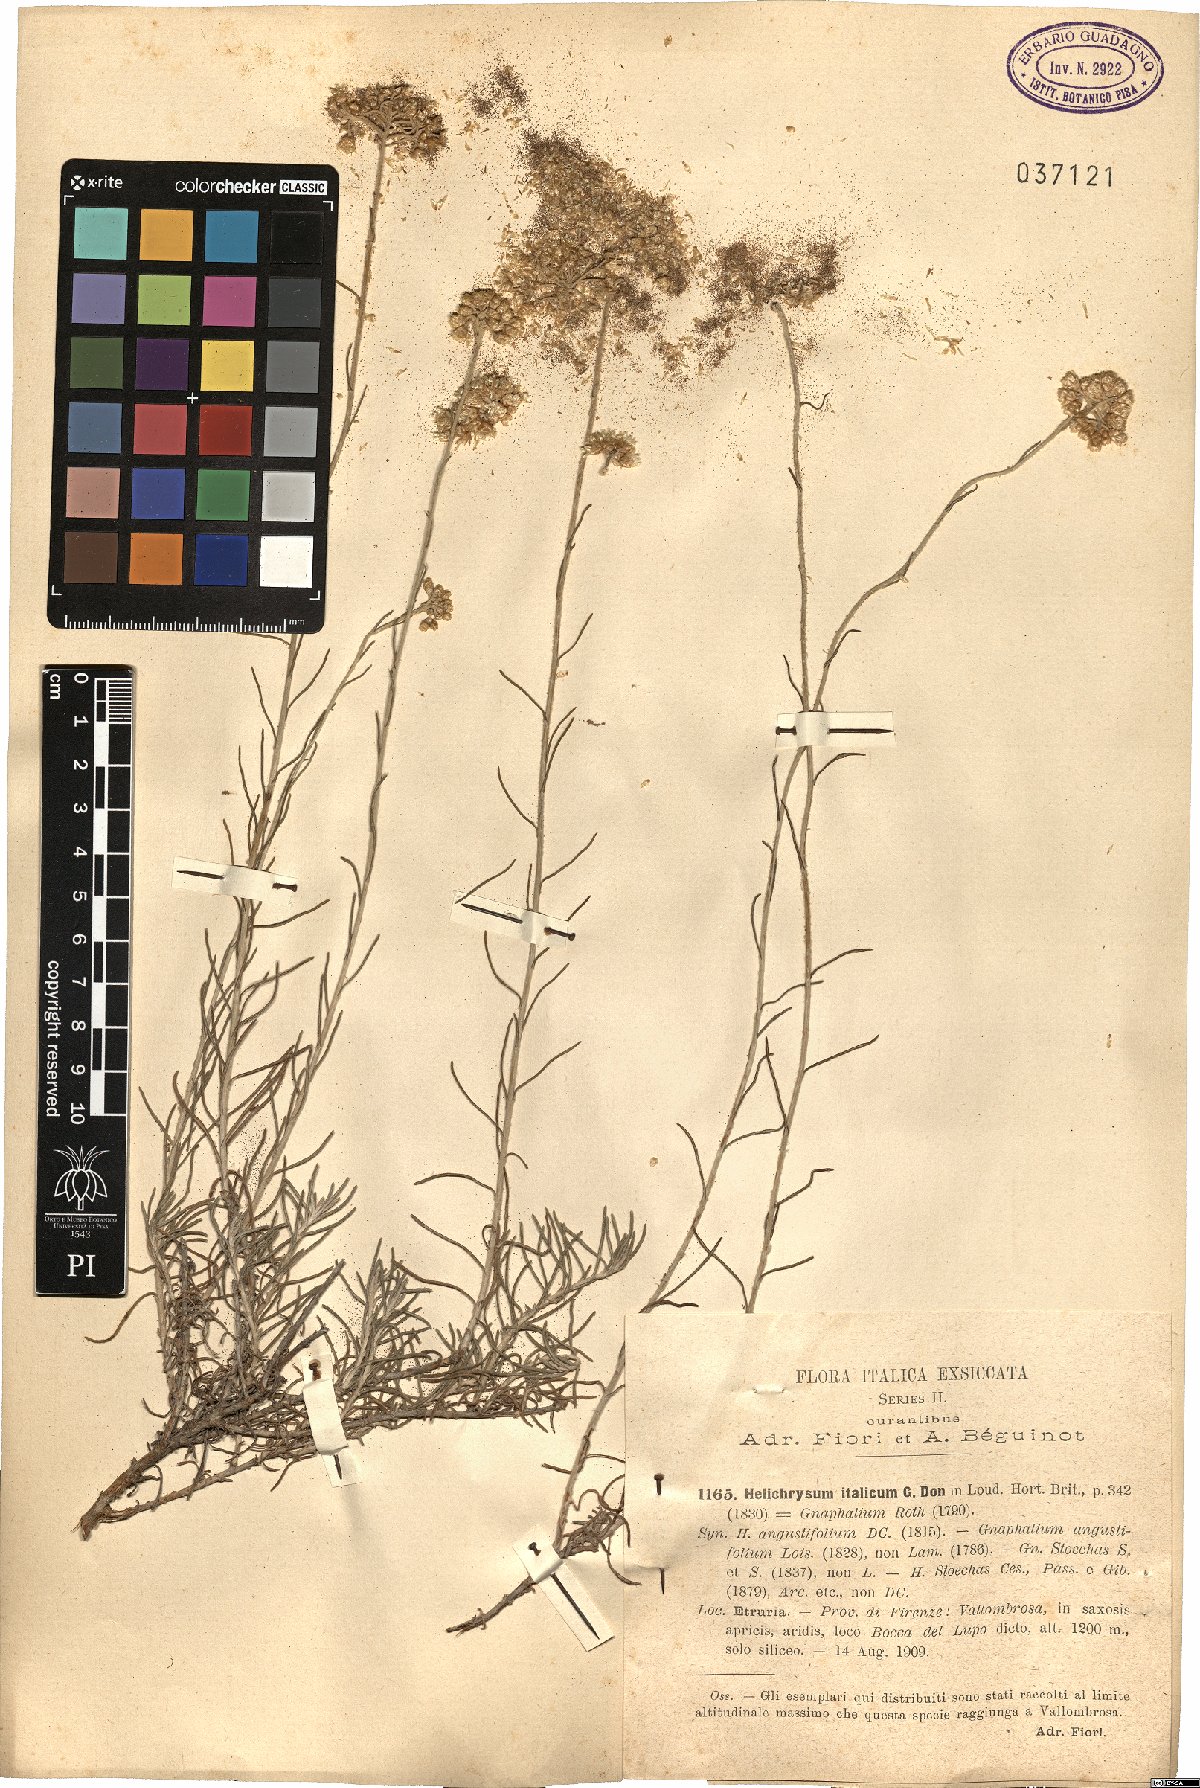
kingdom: Plantae
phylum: Tracheophyta
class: Magnoliopsida
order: Asterales
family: Asteraceae
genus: Helichrysum
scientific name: Helichrysum italicum
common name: Curryplant
